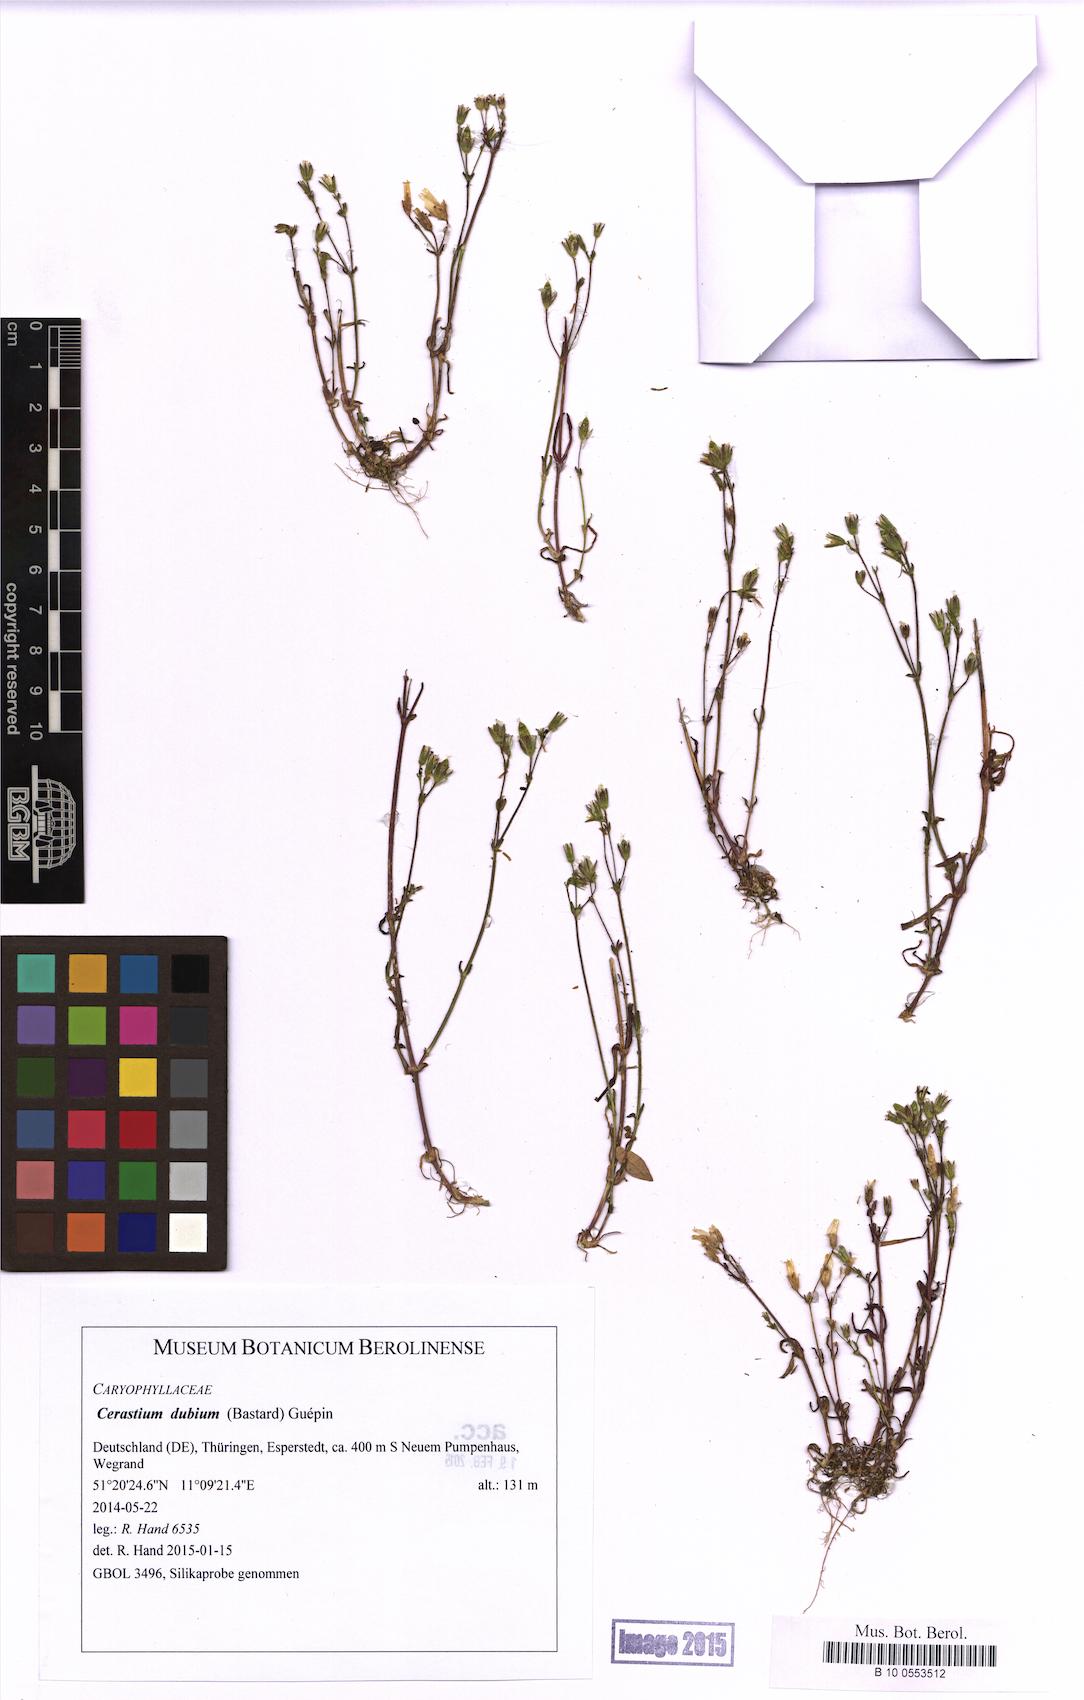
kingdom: Plantae
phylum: Tracheophyta
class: Magnoliopsida
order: Caryophyllales
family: Caryophyllaceae
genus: Dichodon
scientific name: Dichodon viscidum
